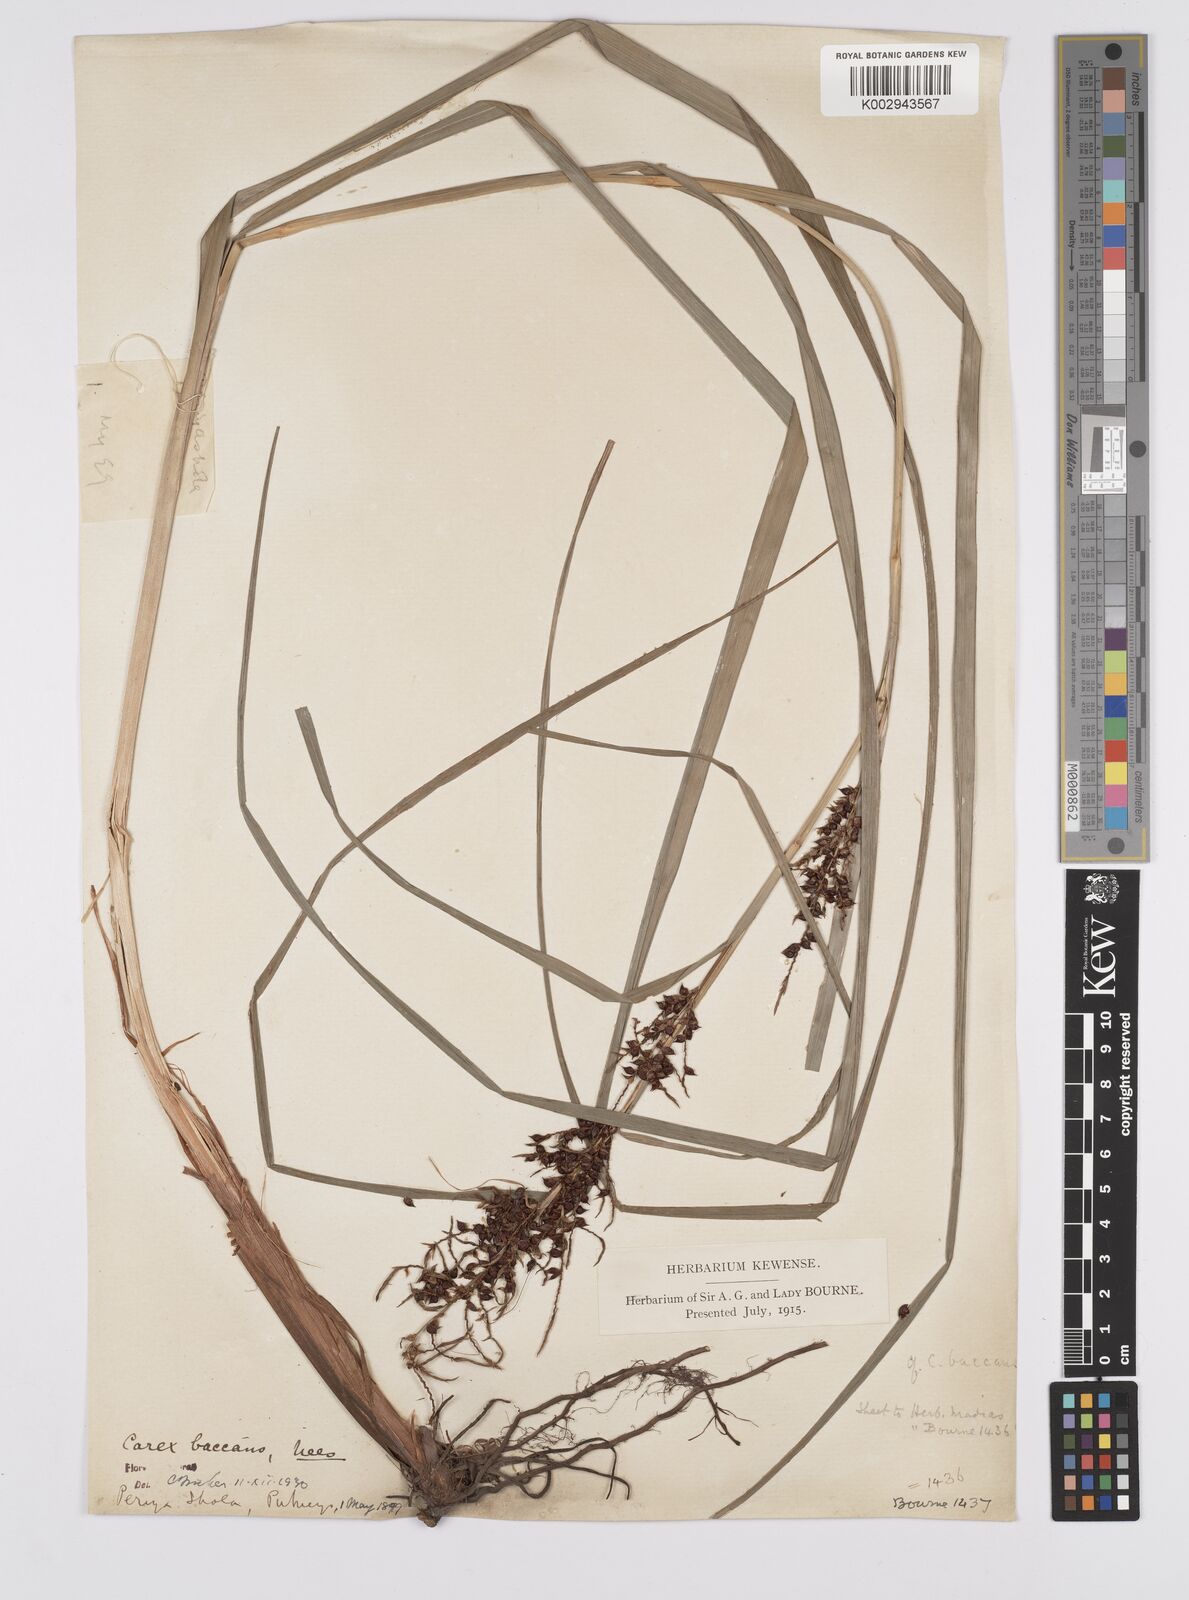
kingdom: Plantae
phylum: Tracheophyta
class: Liliopsida
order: Poales
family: Cyperaceae
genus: Carex
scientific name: Carex baccans
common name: Crimson seeded sedge
